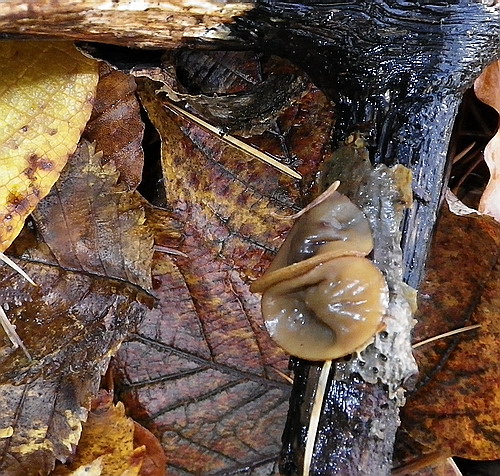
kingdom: Fungi
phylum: Ascomycota
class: Leotiomycetes
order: Helotiales
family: Rutstroemiaceae
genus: Rutstroemia
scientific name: Rutstroemia firma
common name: gren-brunskive
